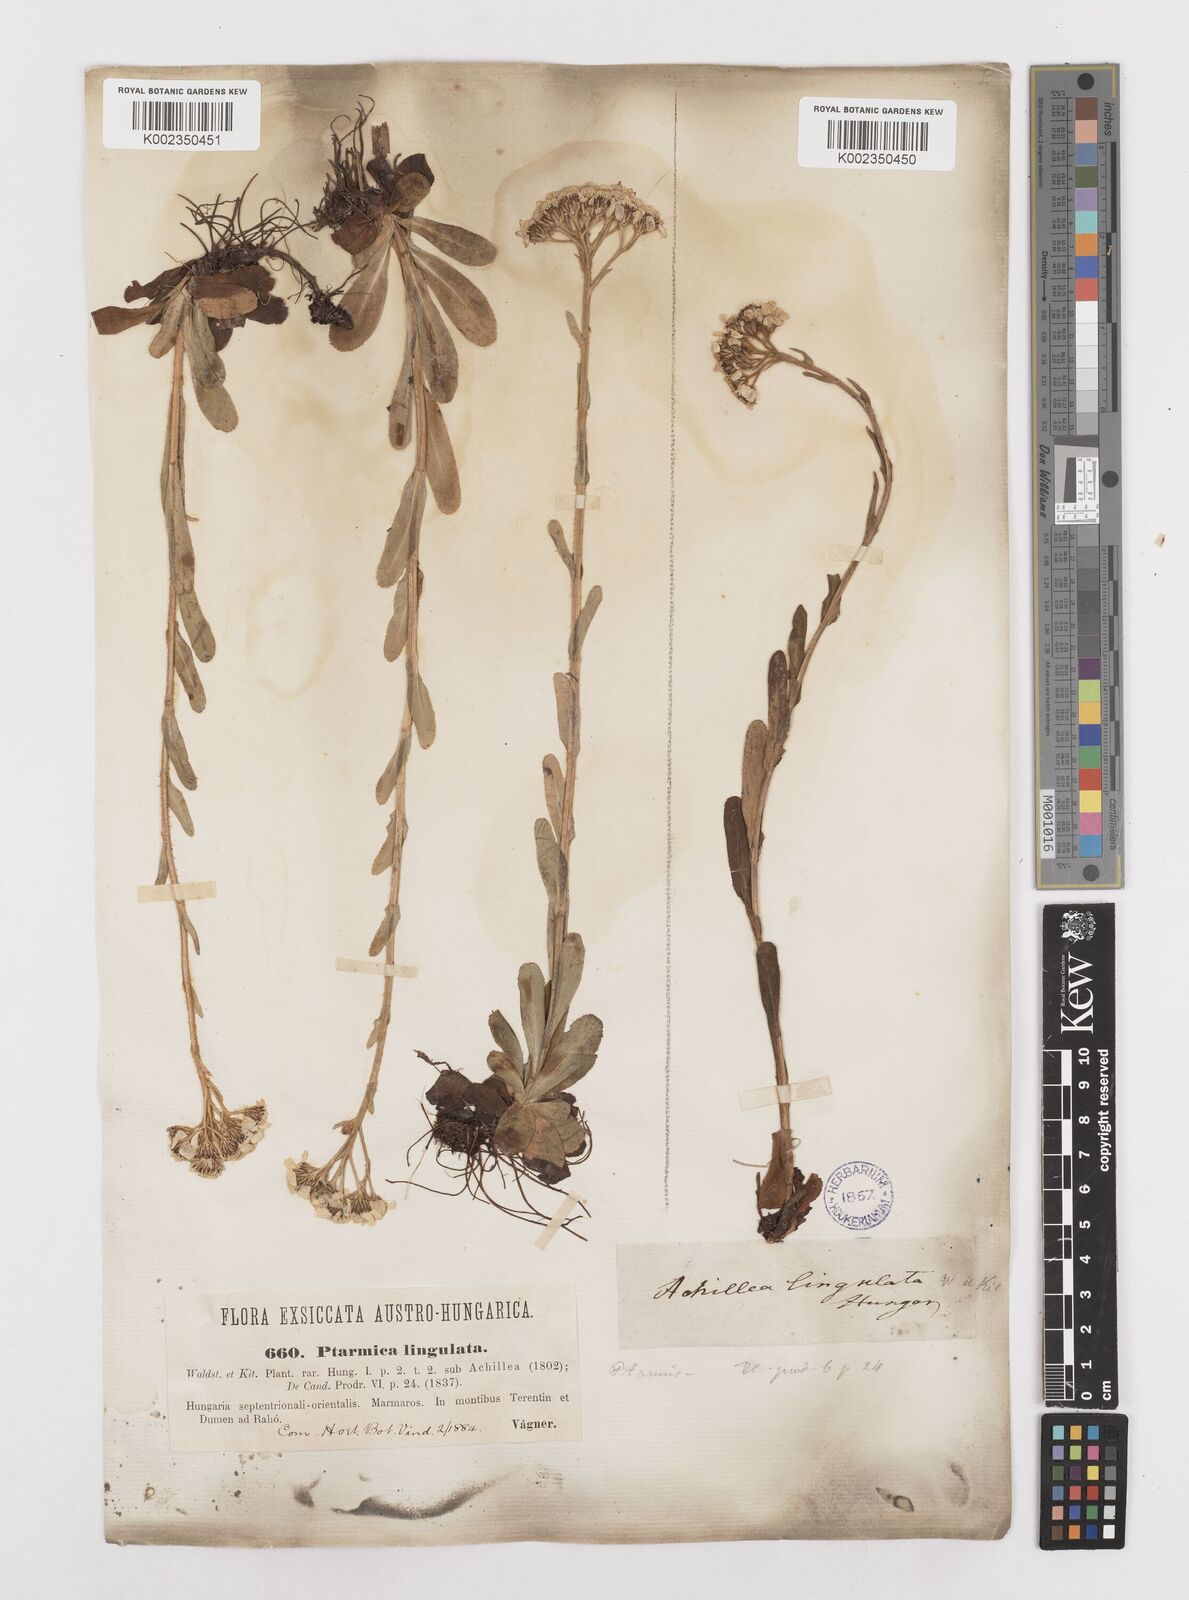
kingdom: Plantae
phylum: Tracheophyta
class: Magnoliopsida
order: Asterales
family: Asteraceae
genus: Achillea
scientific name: Achillea lingulata
